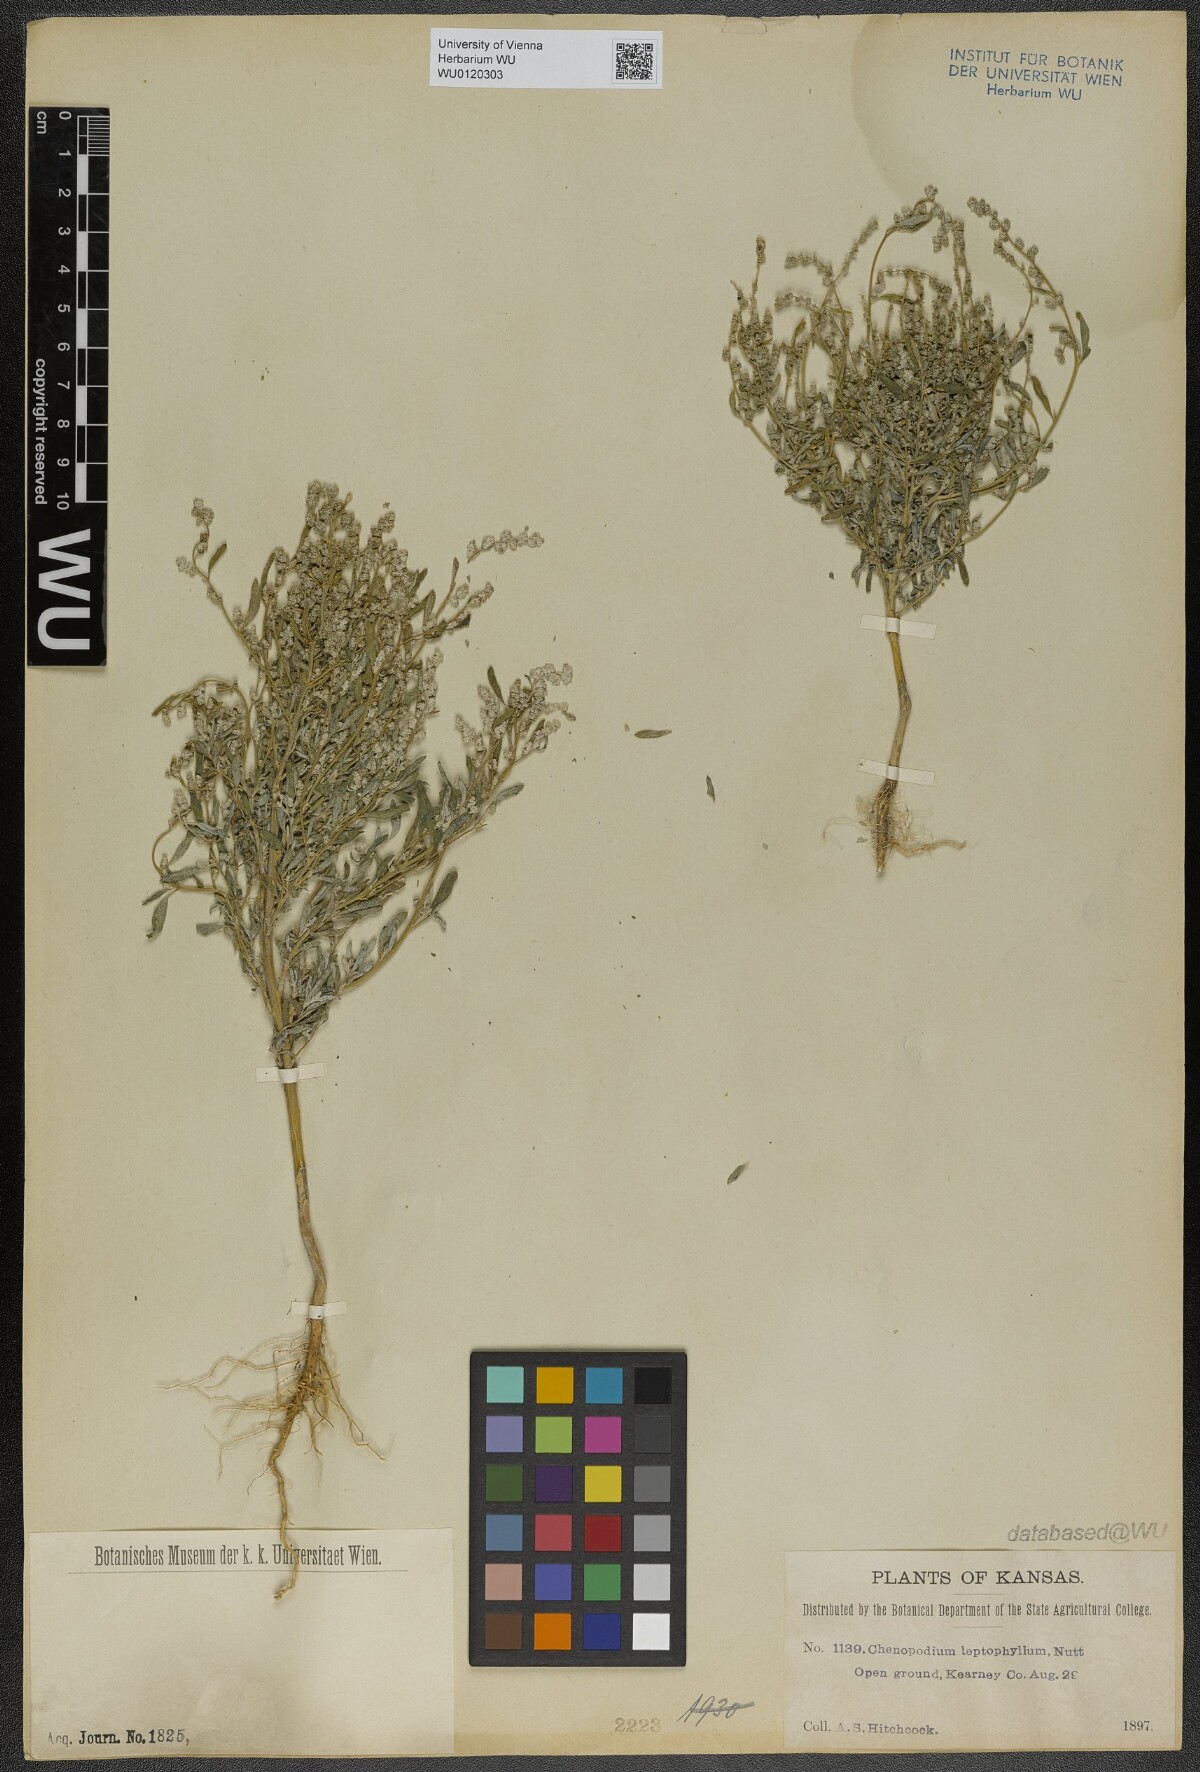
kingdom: Plantae
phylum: Tracheophyta
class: Magnoliopsida
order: Caryophyllales
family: Amaranthaceae
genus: Chenopodium
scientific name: Chenopodium leptophyllum
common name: Narrow-leaf goosefoot
